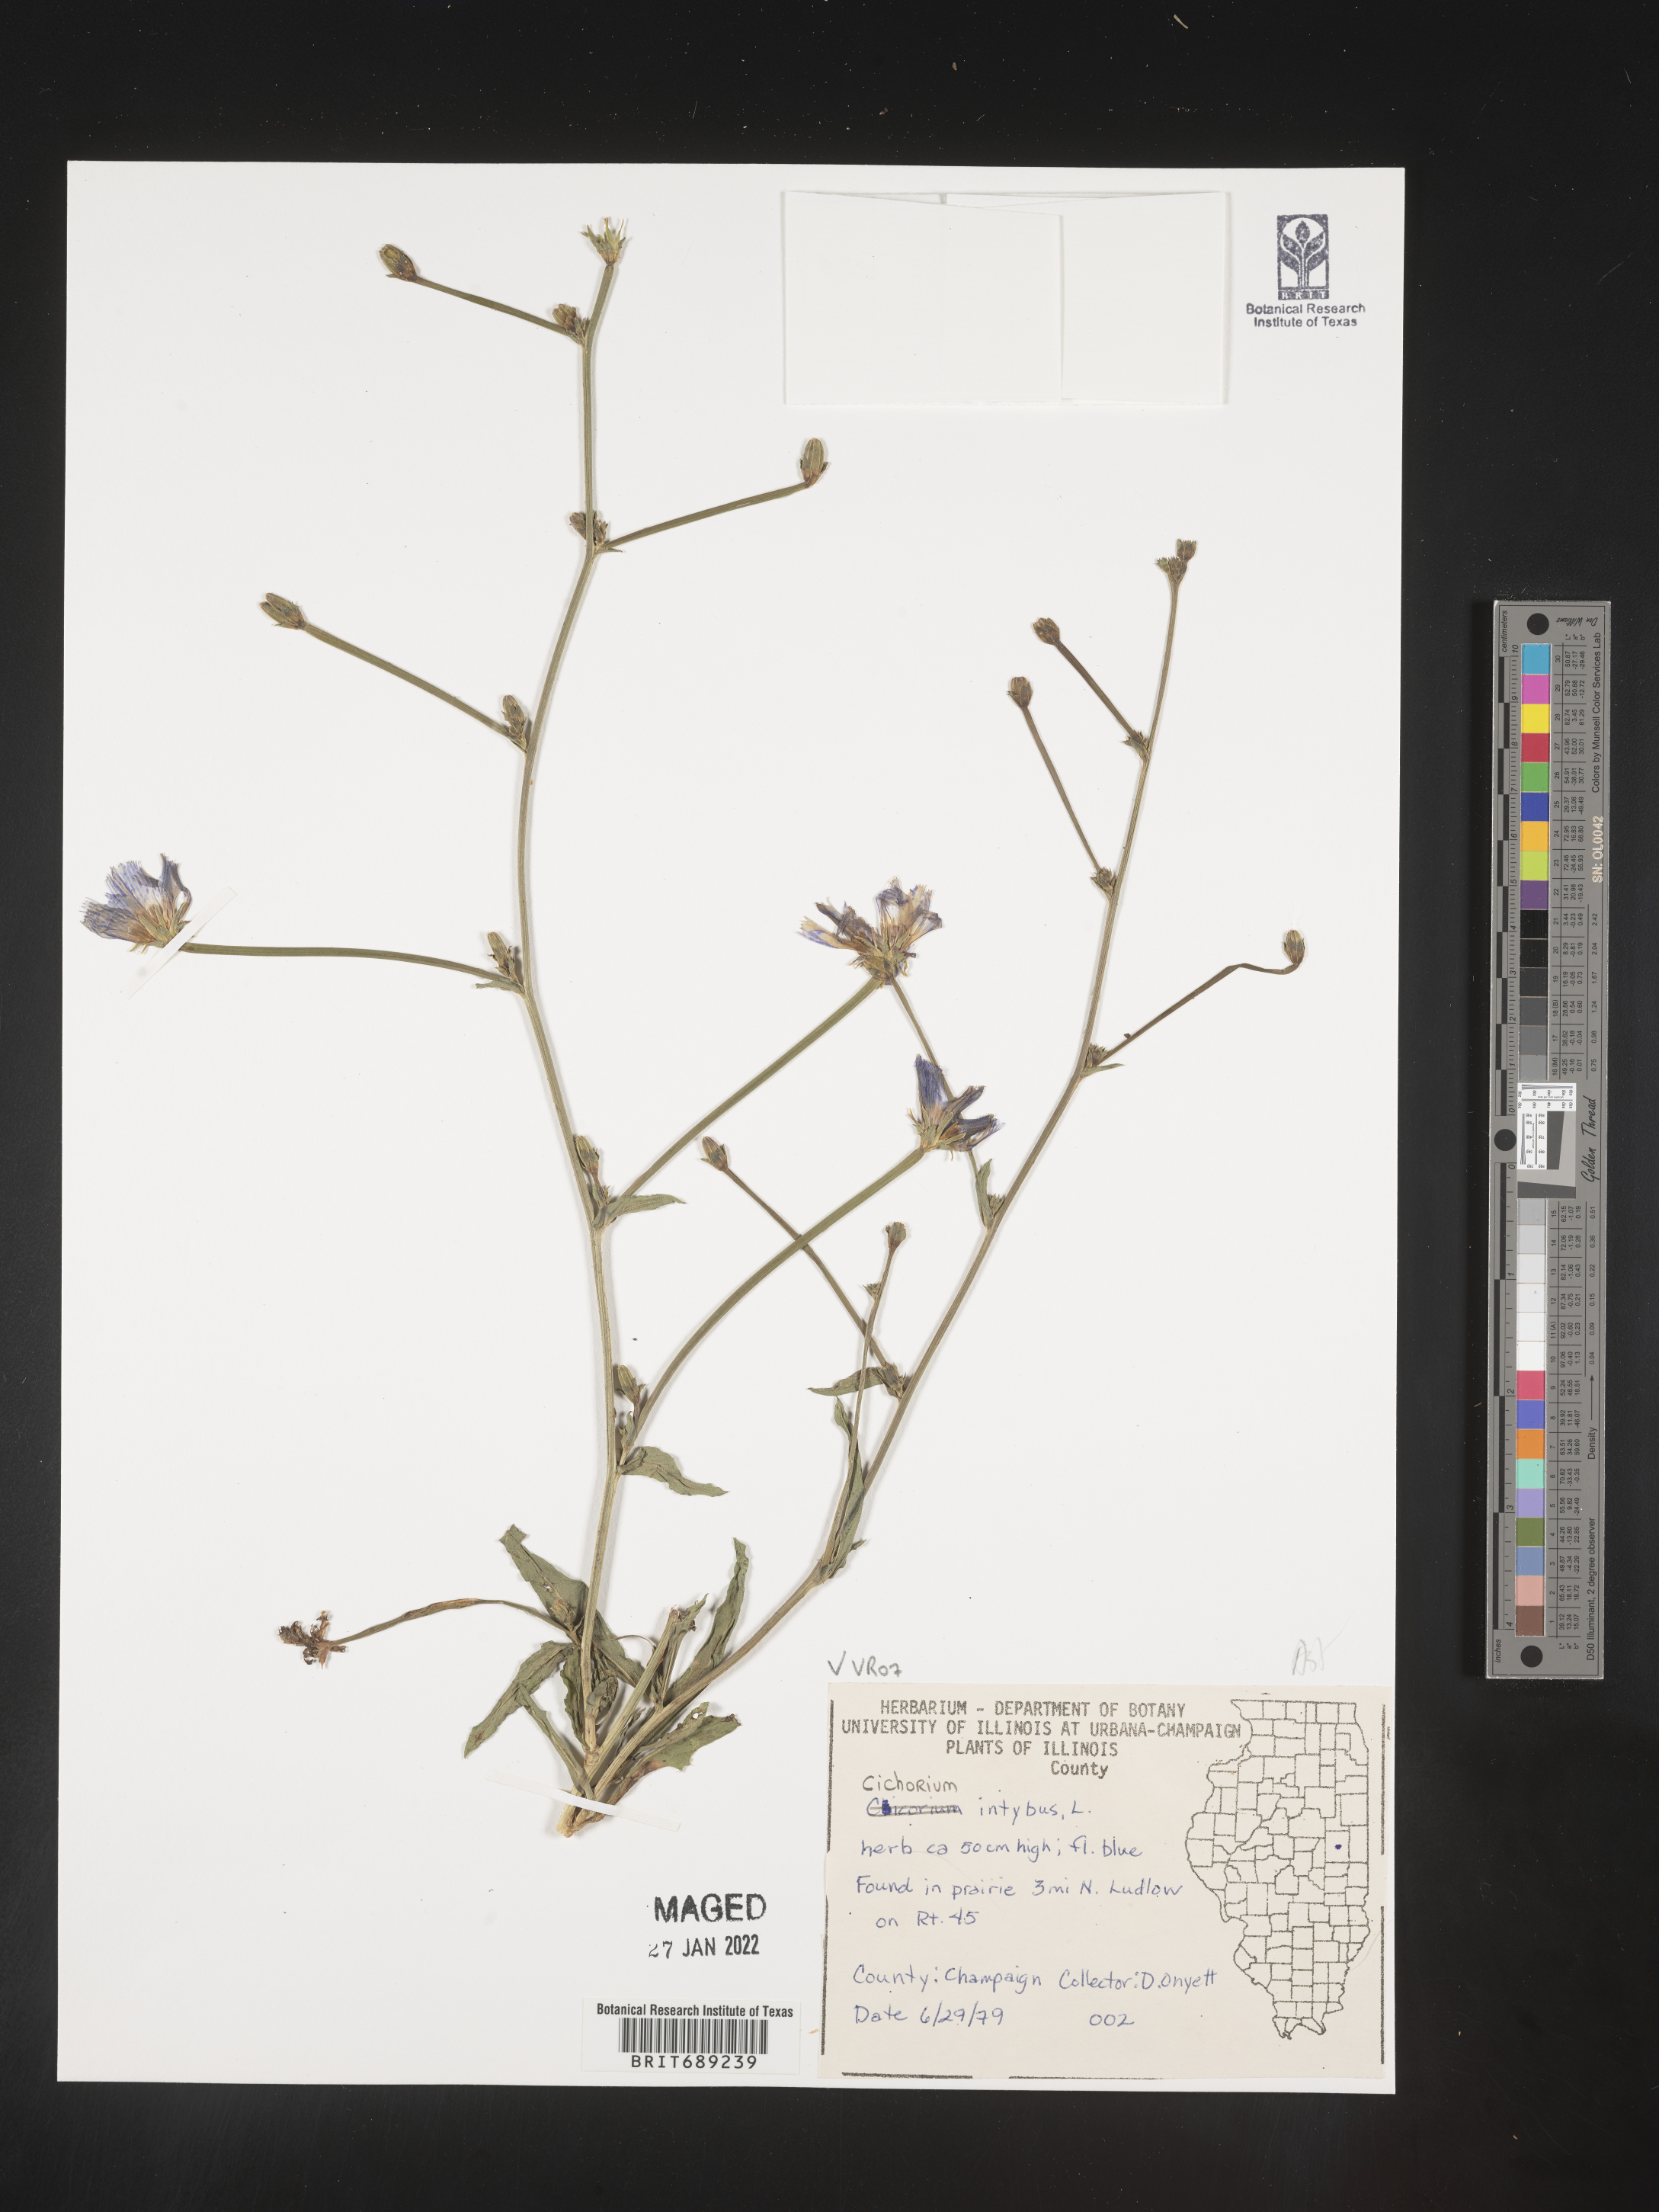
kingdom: Plantae
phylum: Tracheophyta
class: Magnoliopsida
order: Asterales
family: Asteraceae
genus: Cichorium
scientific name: Cichorium intybus
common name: Chicory
